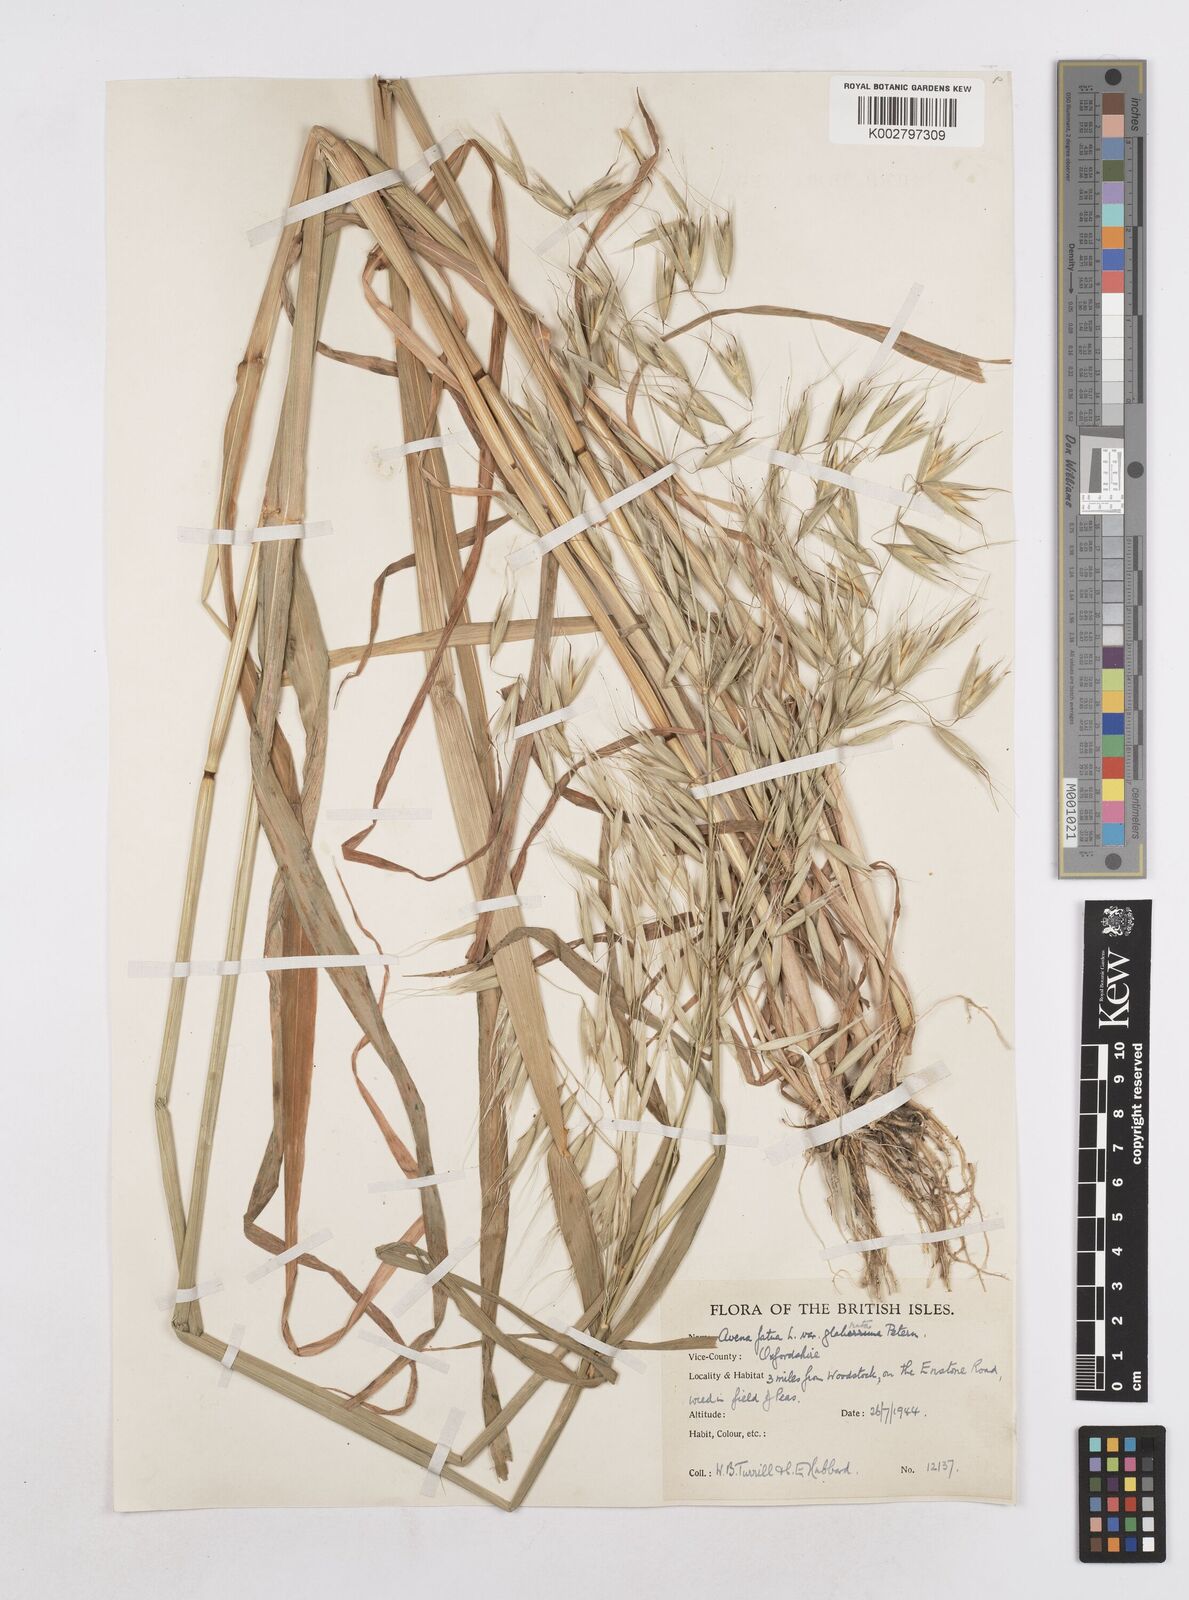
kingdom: Plantae
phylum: Tracheophyta
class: Liliopsida
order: Poales
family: Poaceae
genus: Avena
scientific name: Avena fatua
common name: Wild oat
